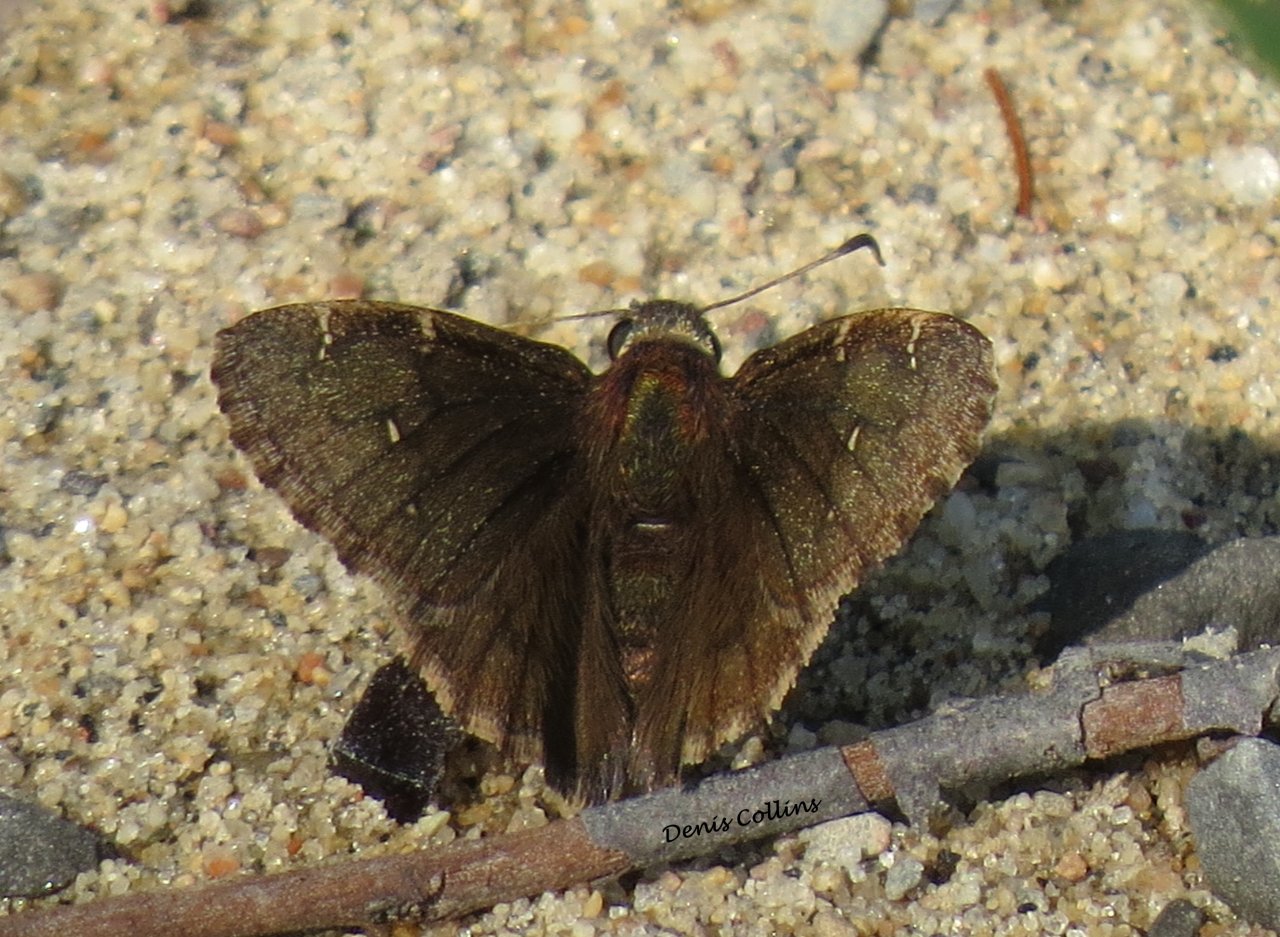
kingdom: Animalia
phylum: Arthropoda
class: Insecta
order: Lepidoptera
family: Hesperiidae
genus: Autochton
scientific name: Autochton
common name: Northern Cloudywing
